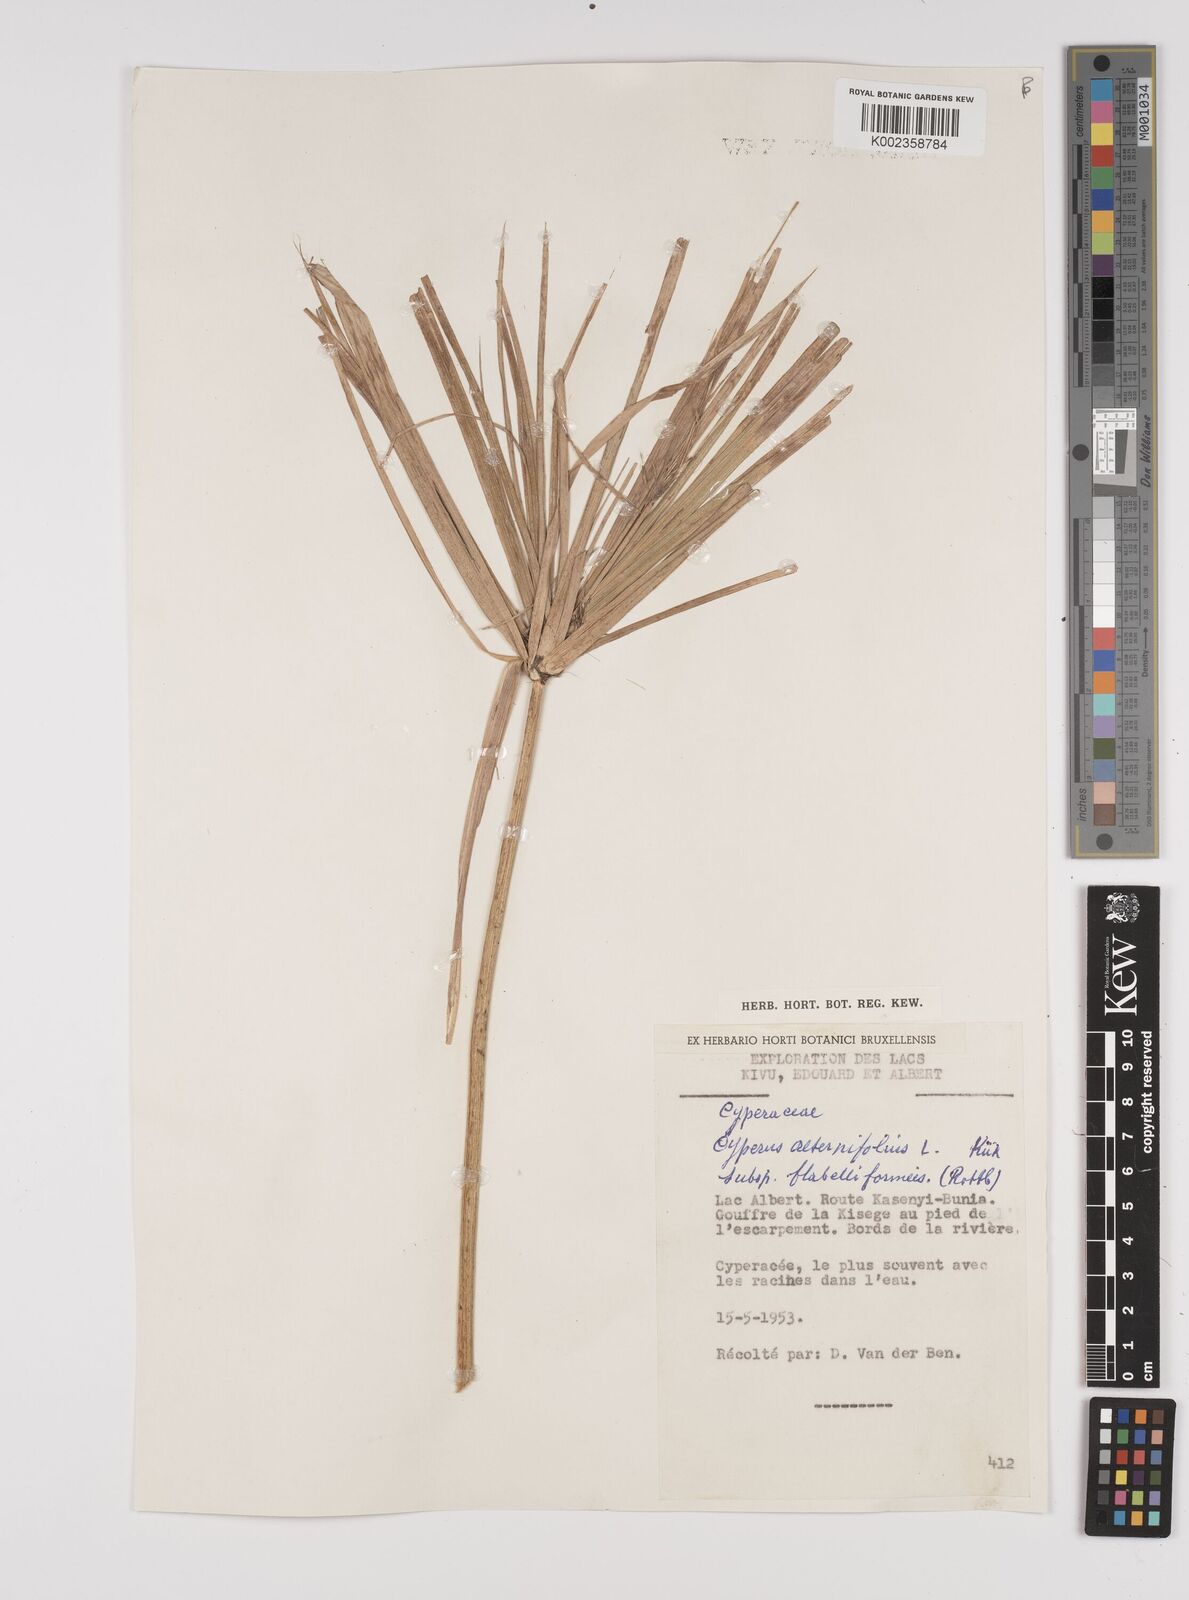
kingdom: Plantae
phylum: Tracheophyta
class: Liliopsida
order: Poales
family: Cyperaceae
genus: Cyperus
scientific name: Cyperus alternifolius
